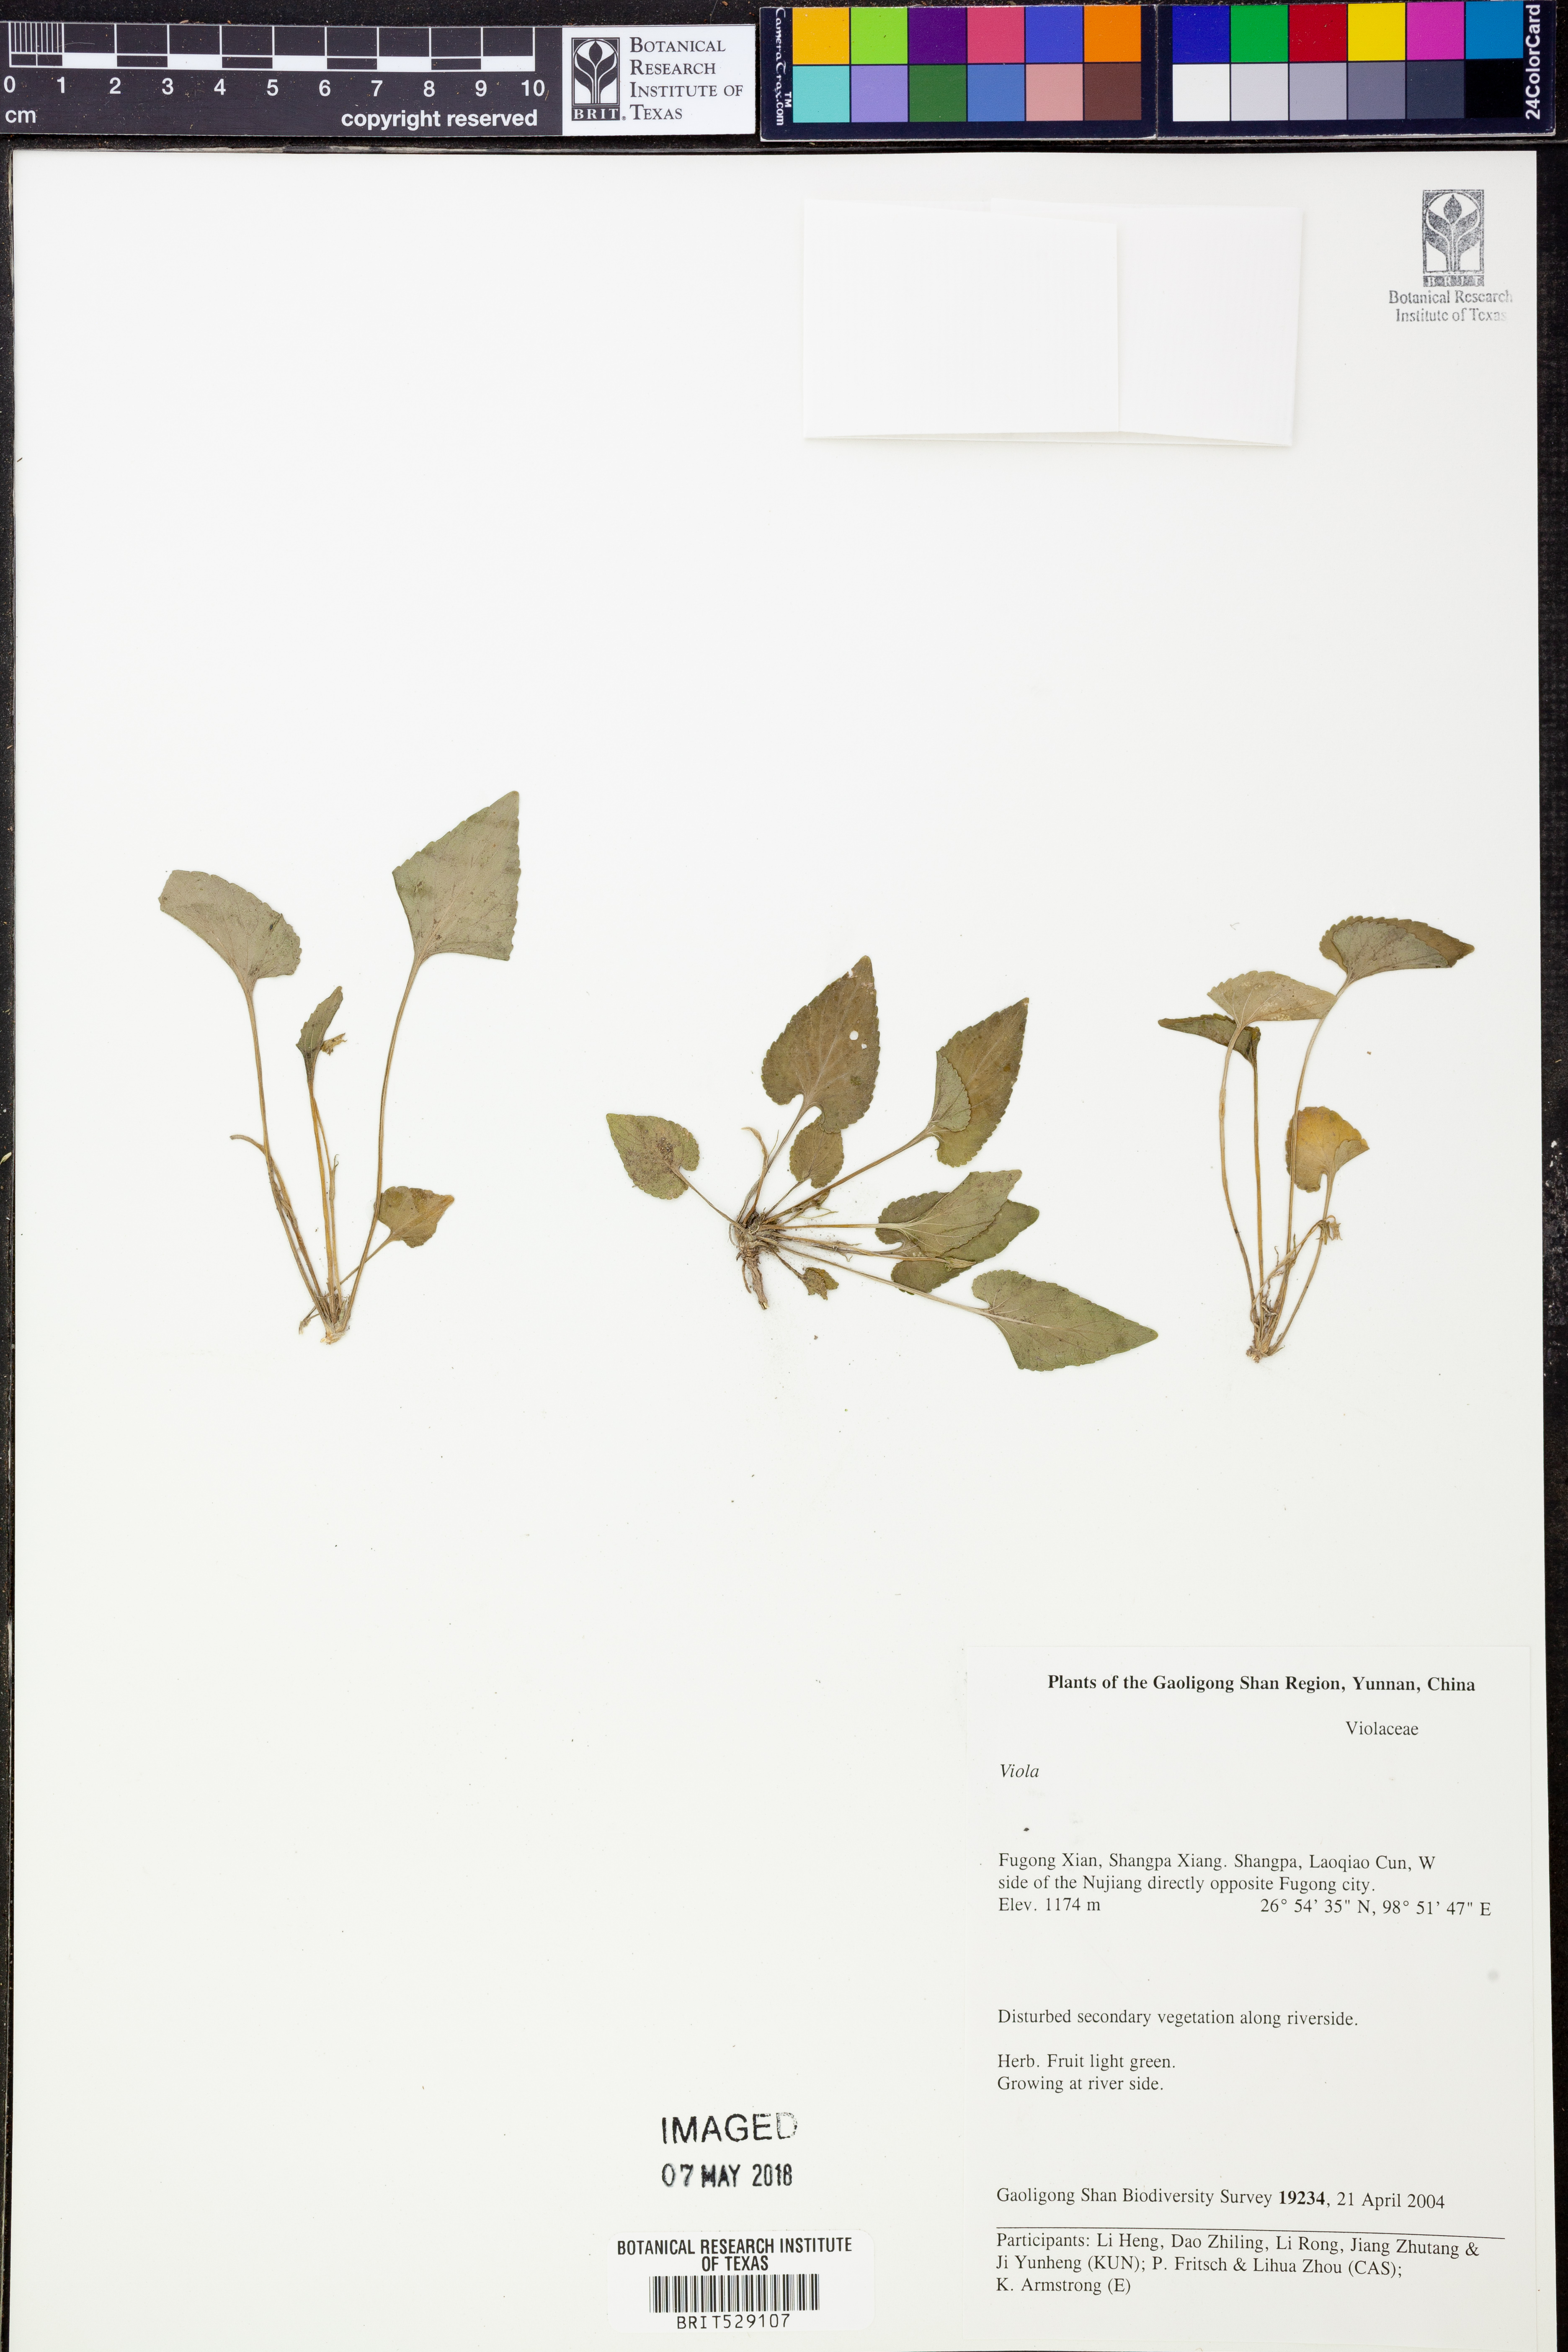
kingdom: Plantae
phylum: Tracheophyta
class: Magnoliopsida
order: Malpighiales
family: Violaceae
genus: Viola
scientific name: Viola
